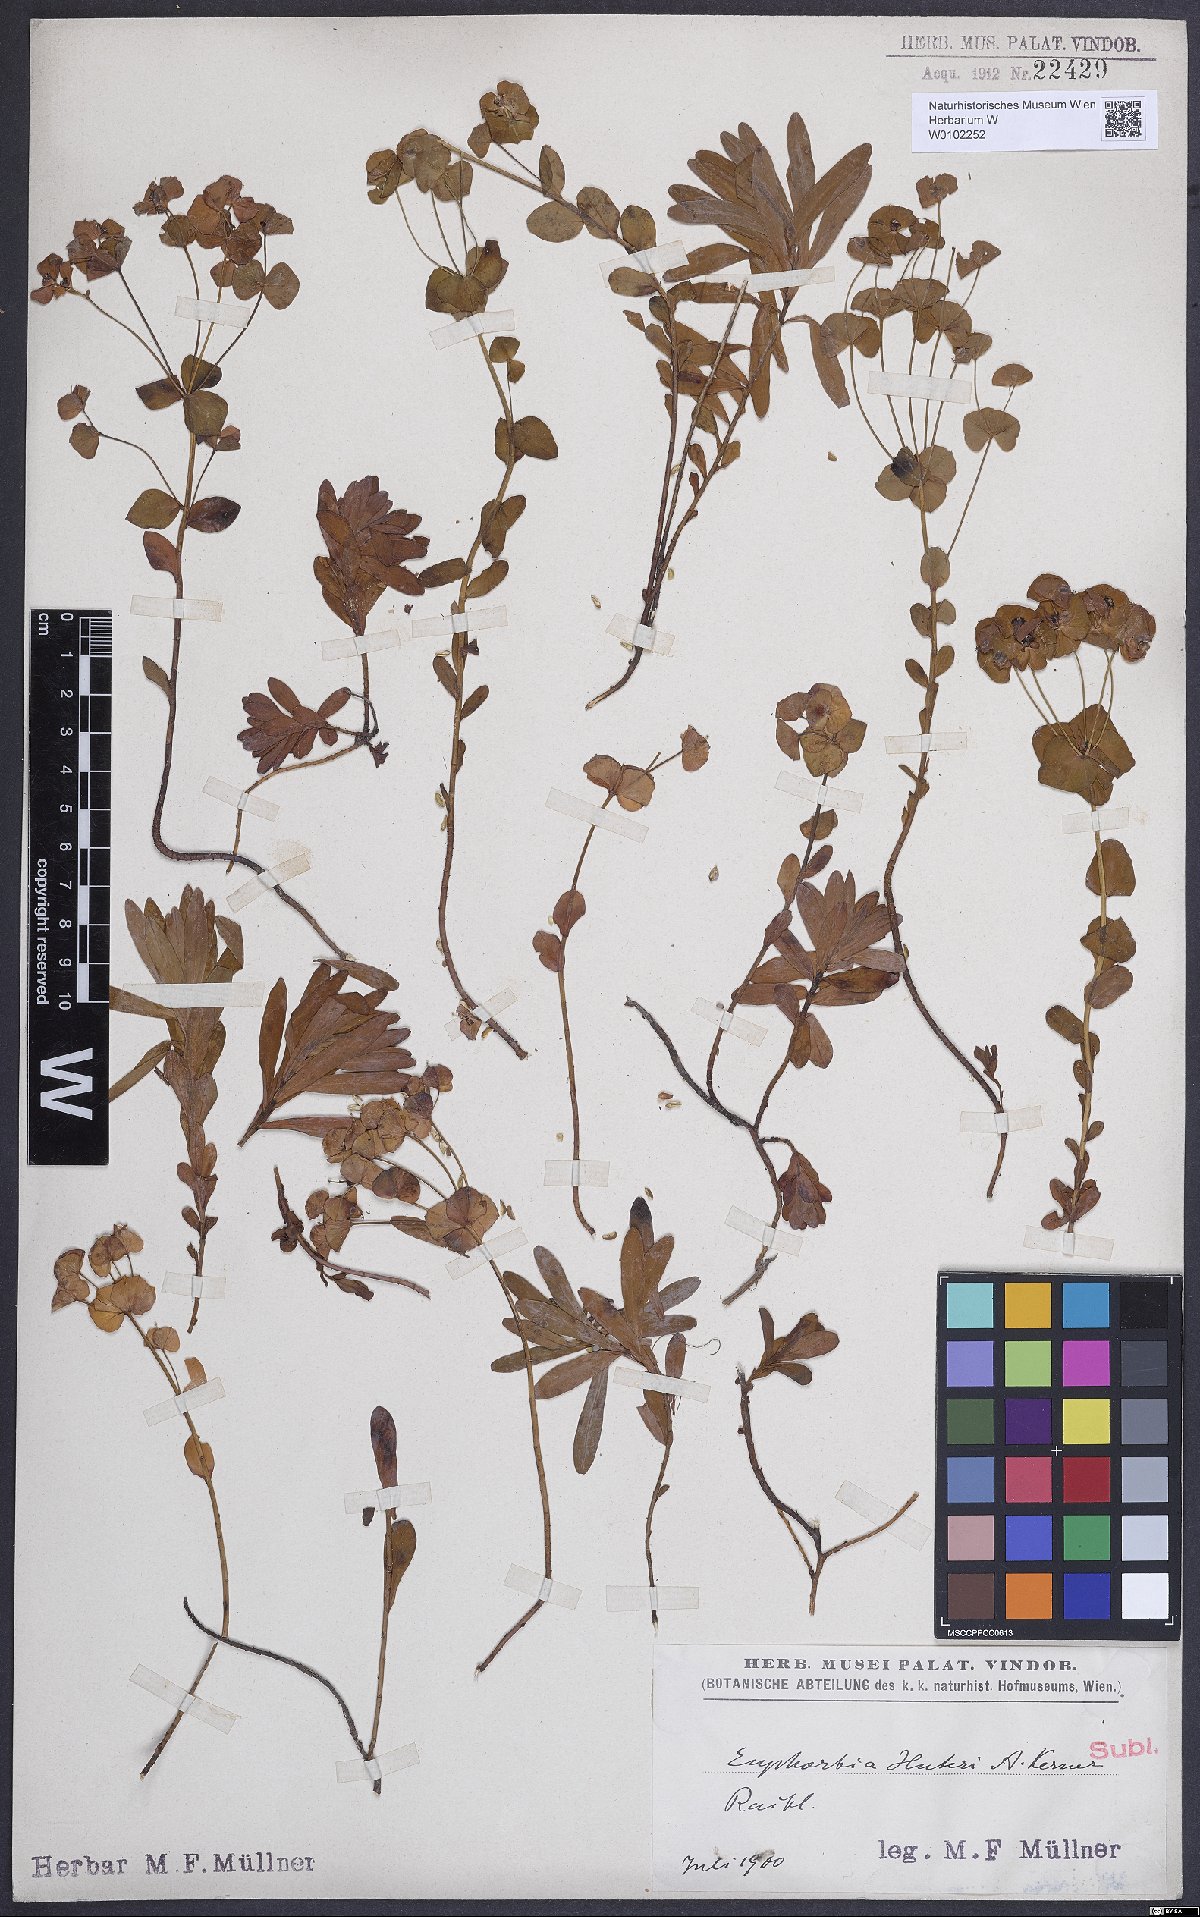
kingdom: Plantae
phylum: Tracheophyta
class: Magnoliopsida
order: Malpighiales
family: Euphorbiaceae
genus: Euphorbia
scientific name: Euphorbia
